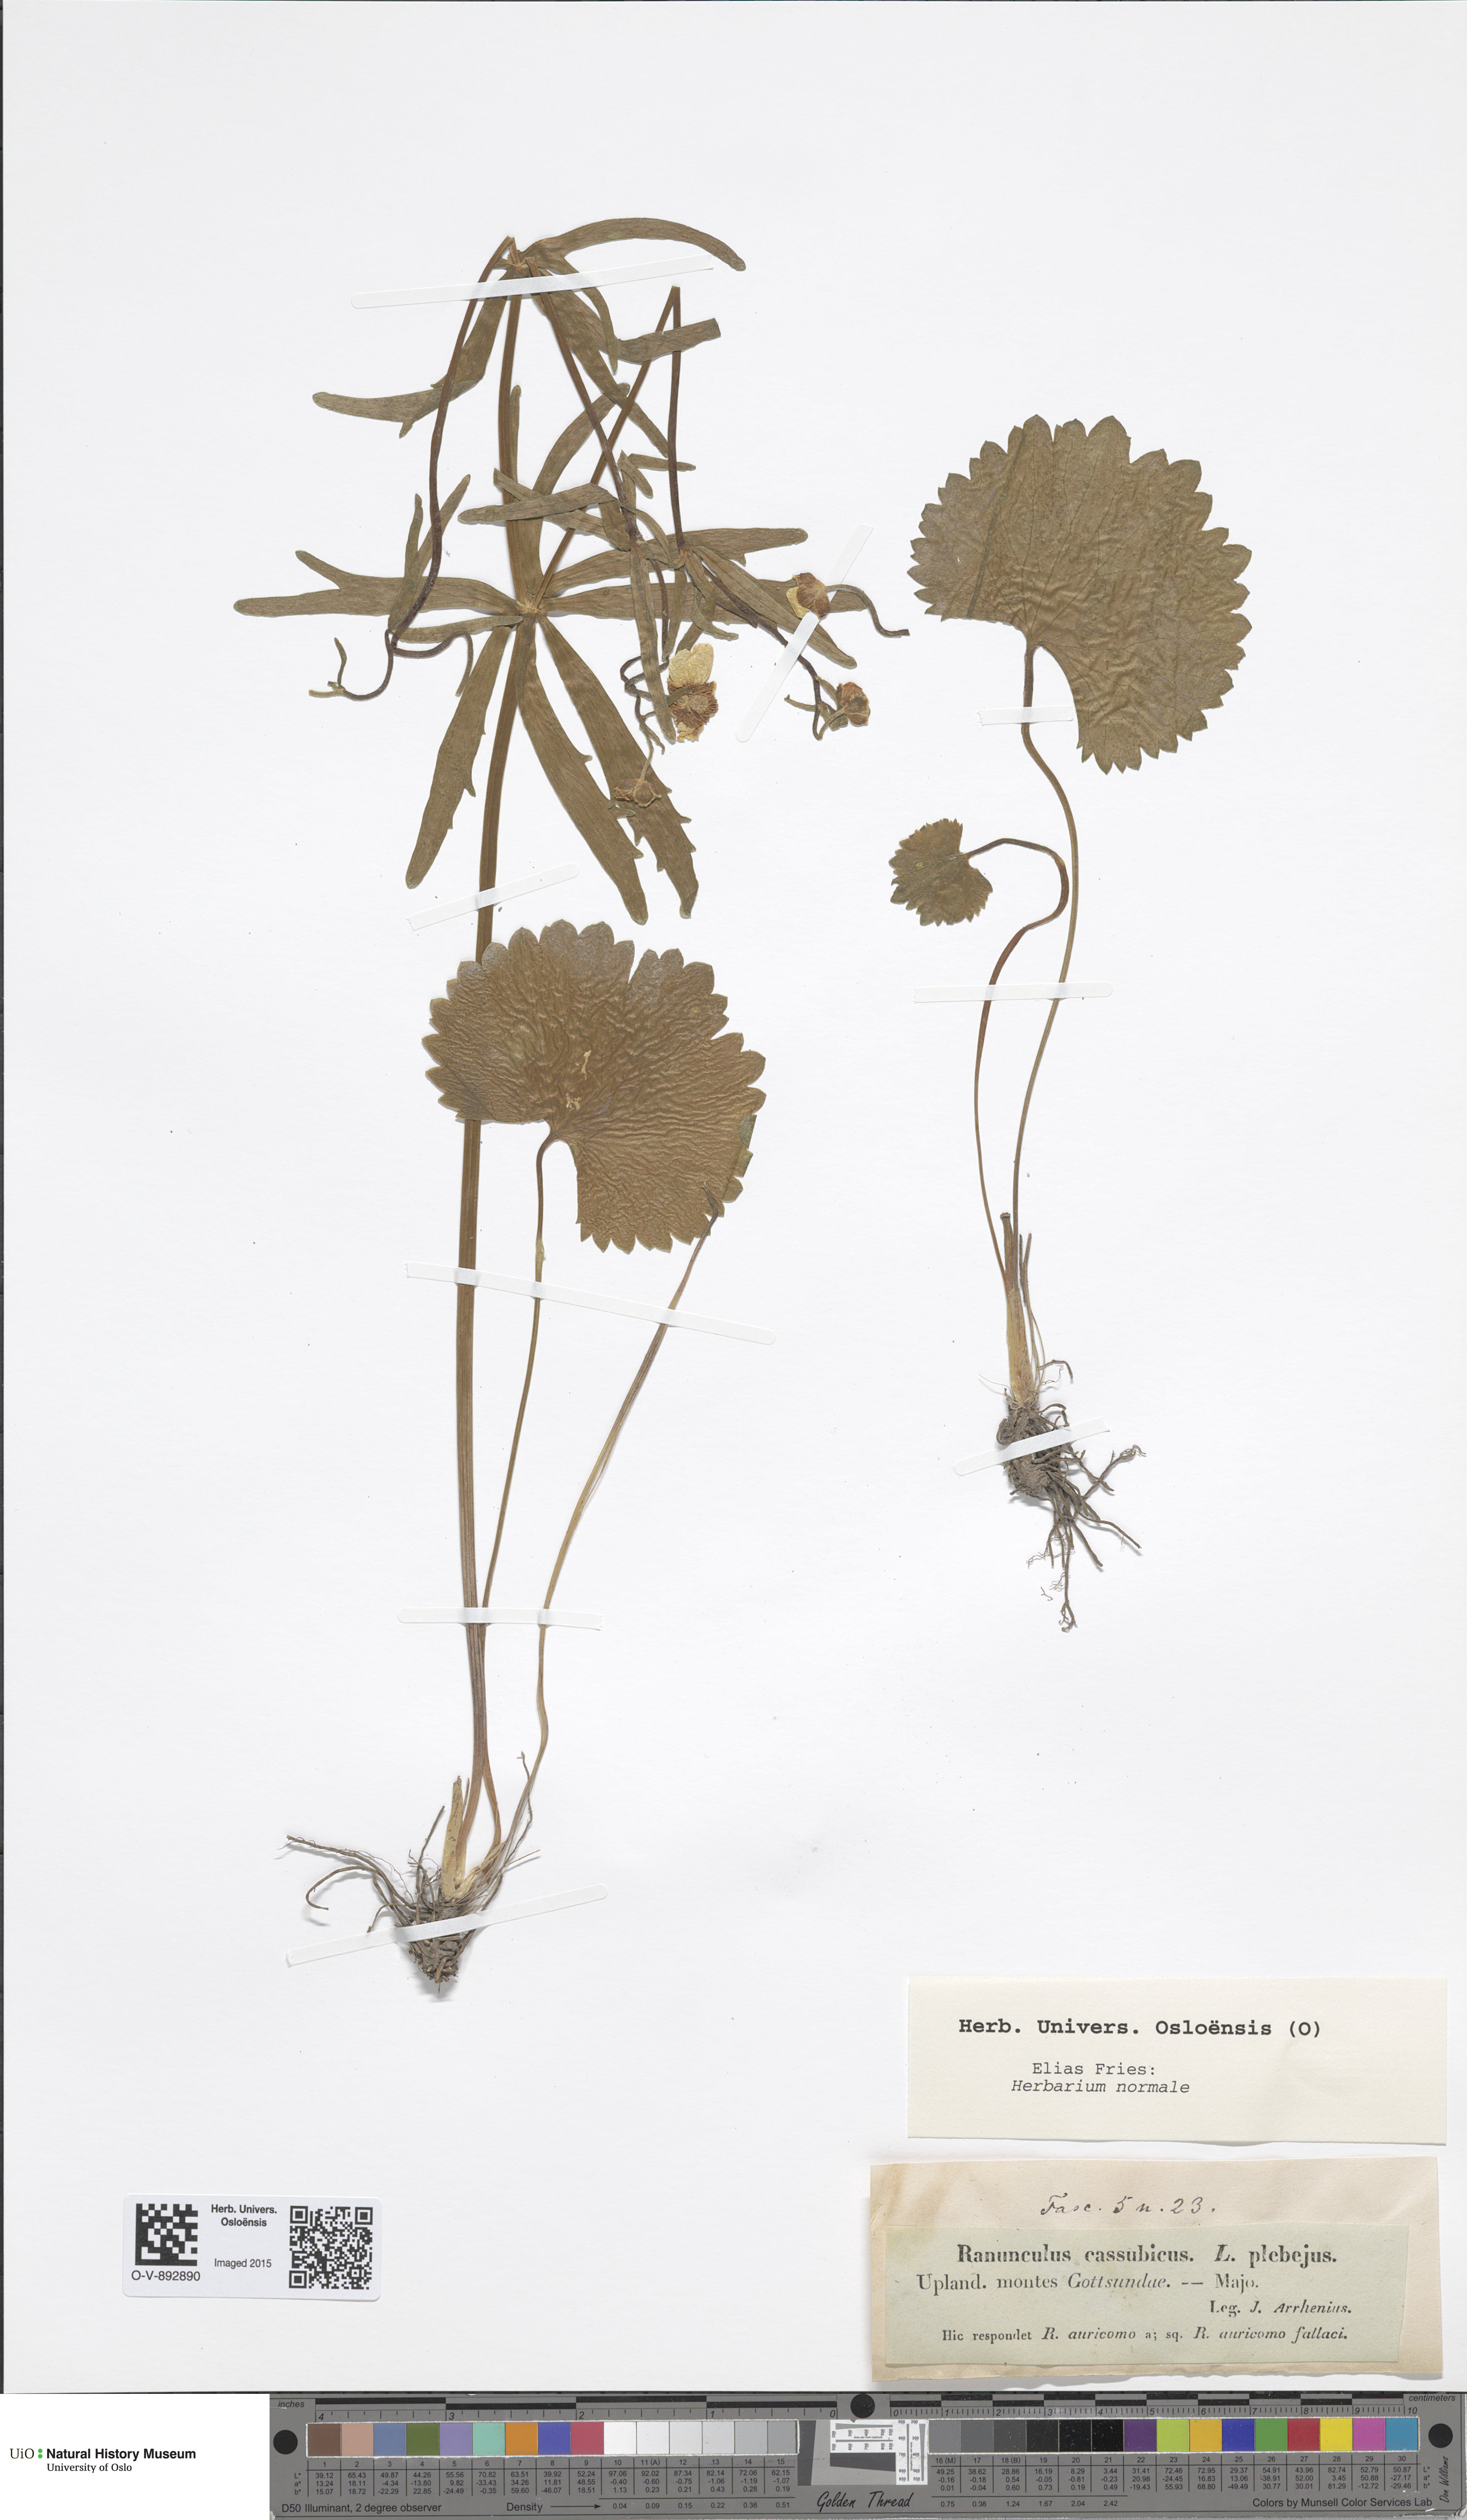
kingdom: Plantae
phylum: Tracheophyta
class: Magnoliopsida
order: Ranunculales
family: Ranunculaceae
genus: Ranunculus
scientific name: Ranunculus cassubicus
